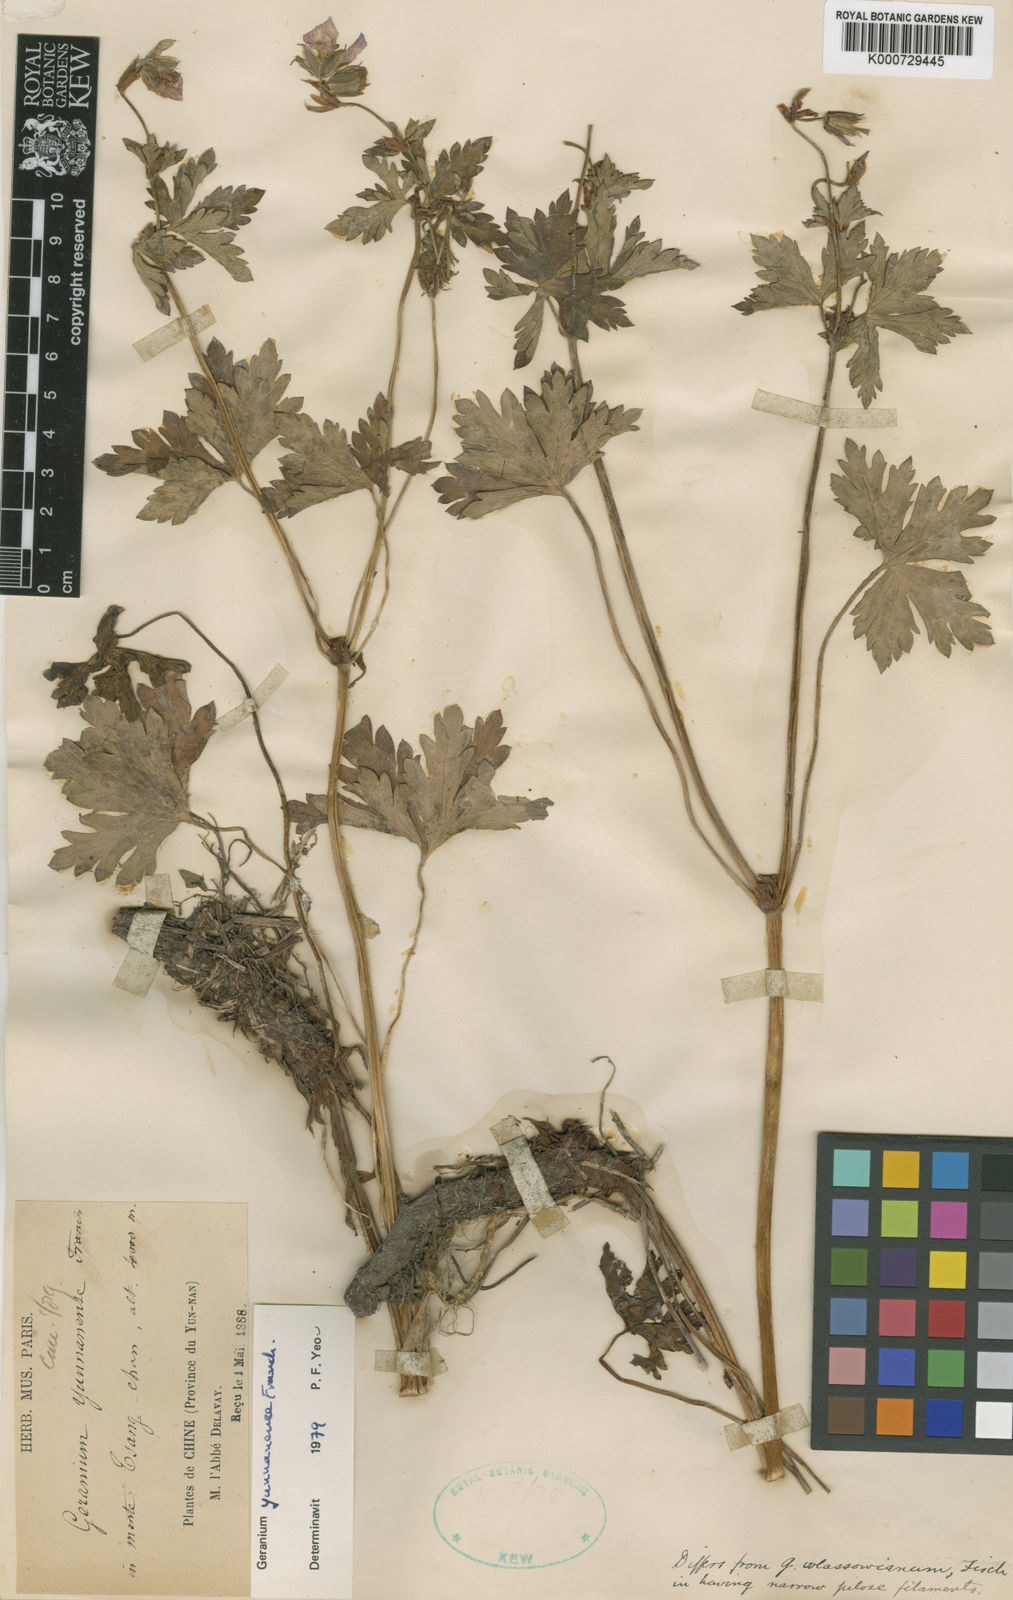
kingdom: Plantae
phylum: Tracheophyta
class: Magnoliopsida
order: Geraniales
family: Geraniaceae
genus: Geranium
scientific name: Geranium yunnanense
